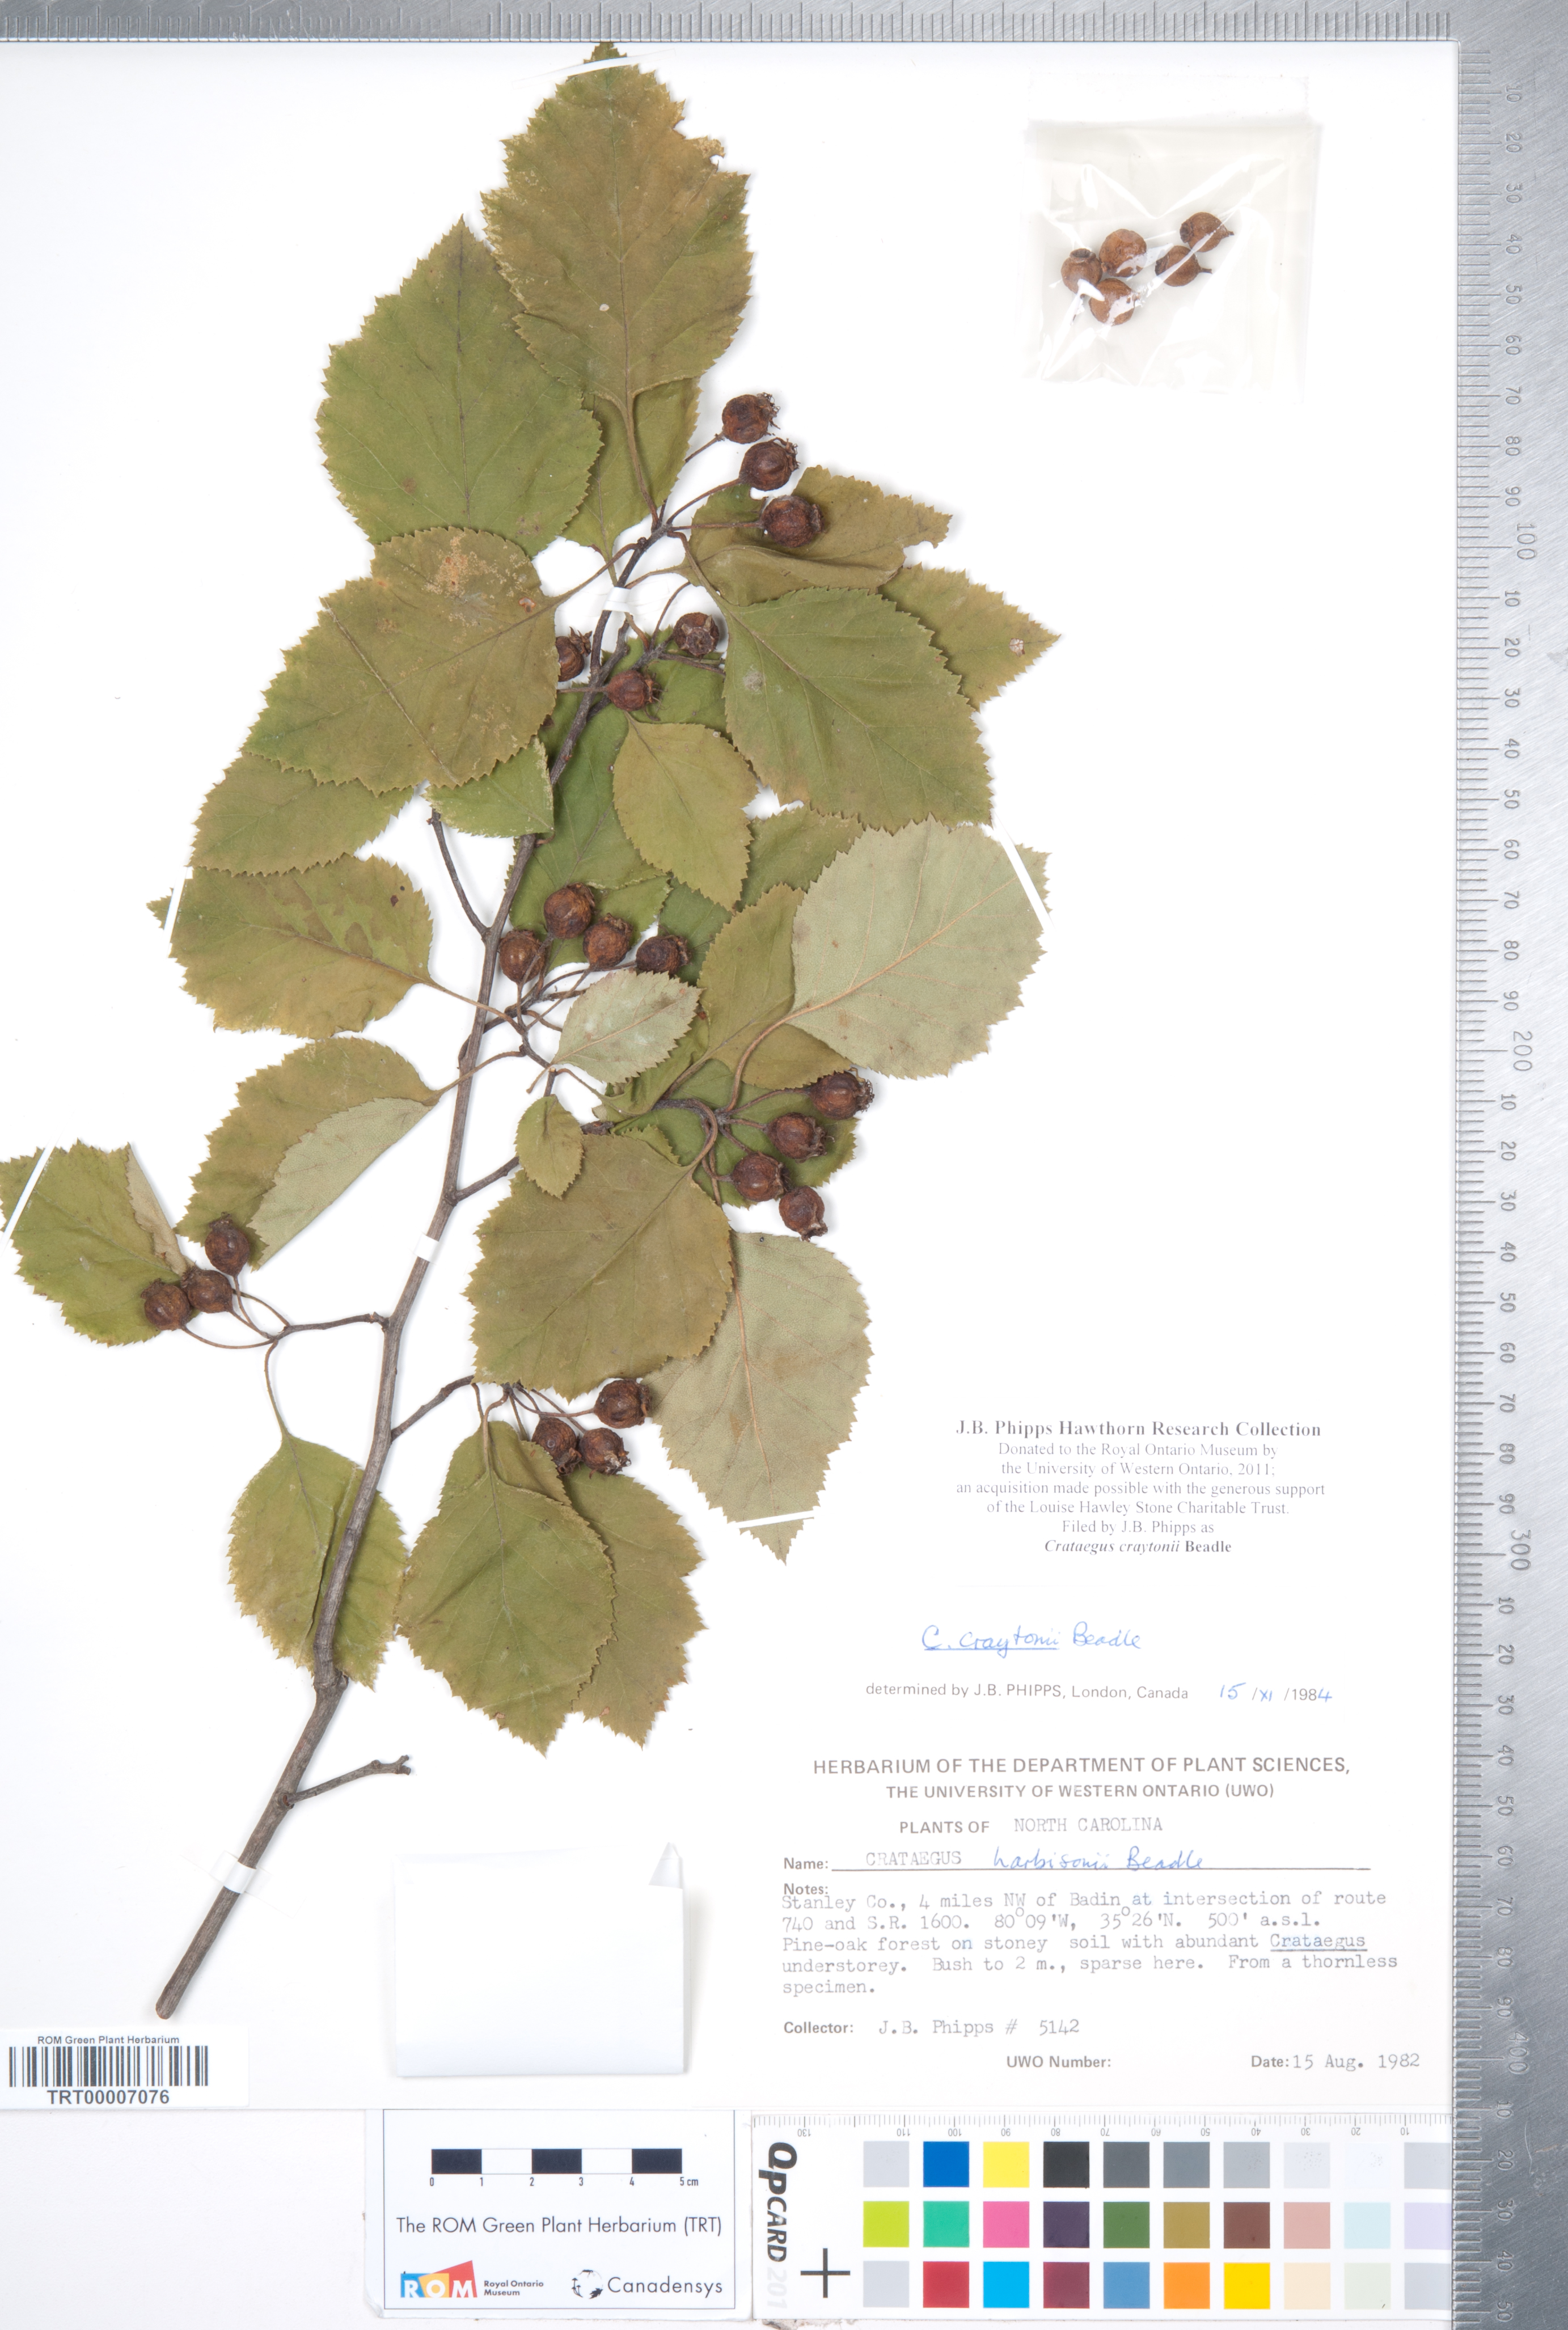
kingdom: Plantae
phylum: Tracheophyta
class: Magnoliopsida
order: Rosales
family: Rosaceae
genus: Crataegus
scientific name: Crataegus intricata
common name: Biltmore hawthorn
